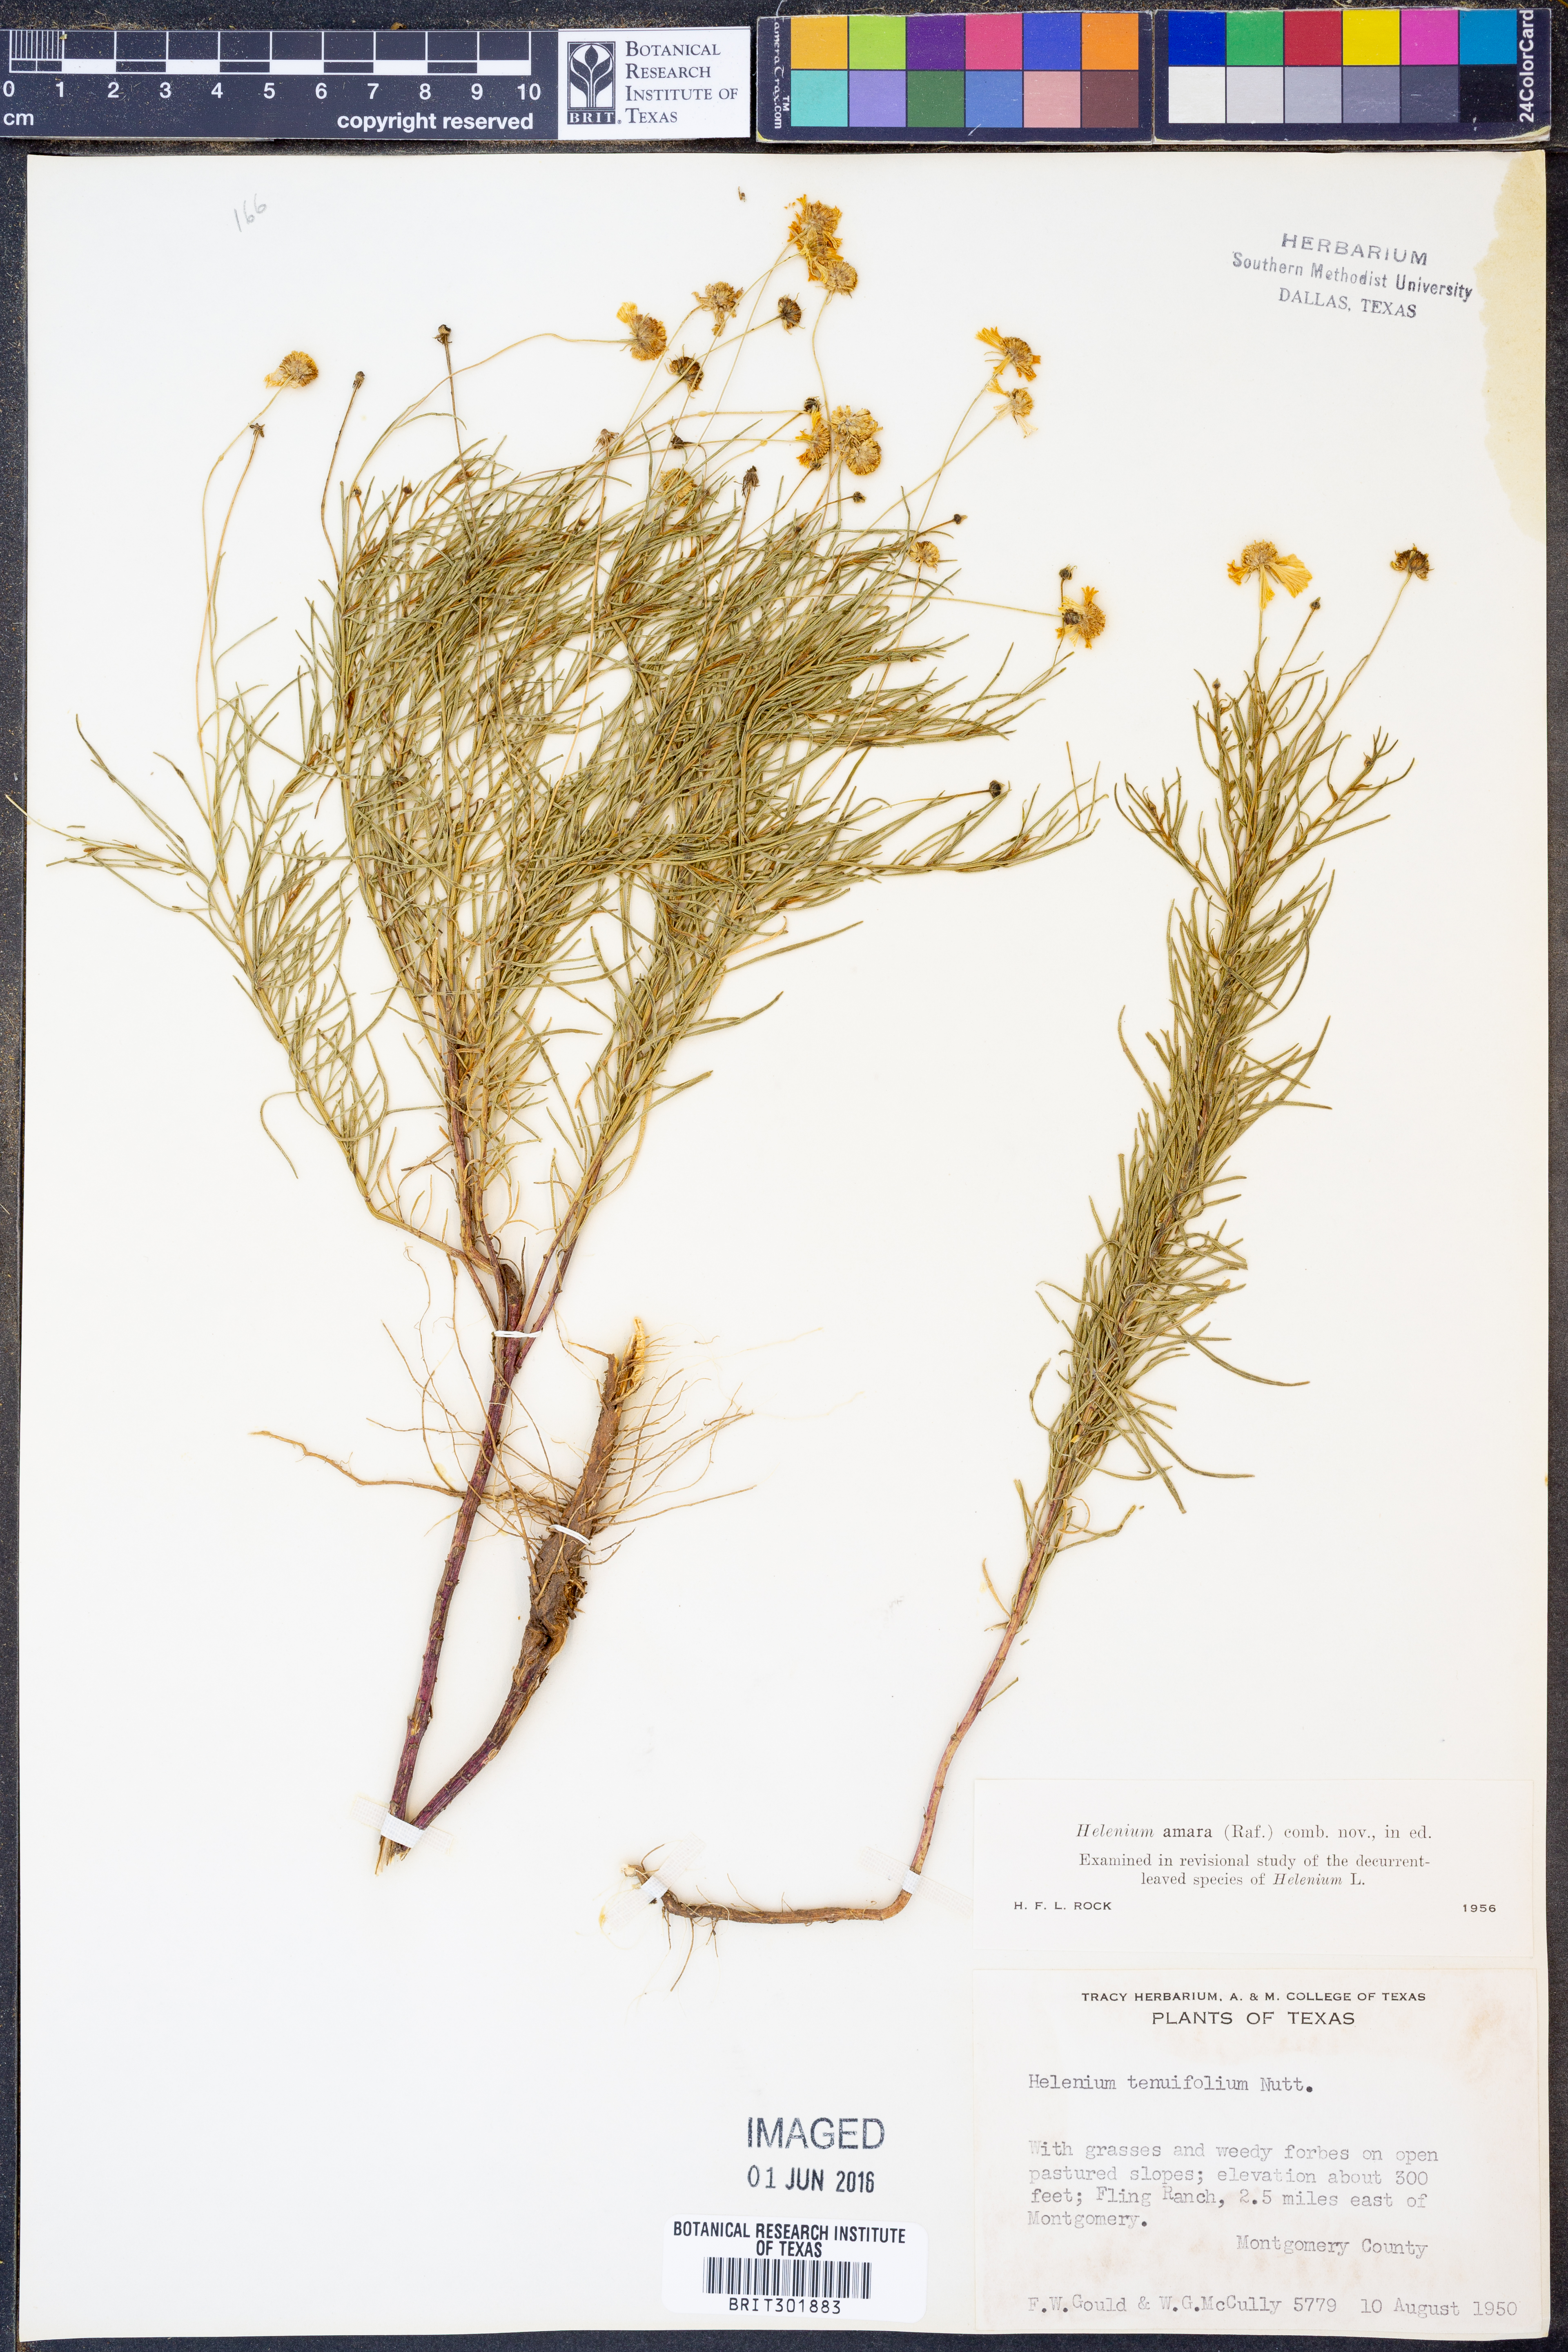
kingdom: Plantae
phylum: Tracheophyta
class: Magnoliopsida
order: Asterales
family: Asteraceae
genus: Helenium
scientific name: Helenium amarum
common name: Bitter sneezeweed
